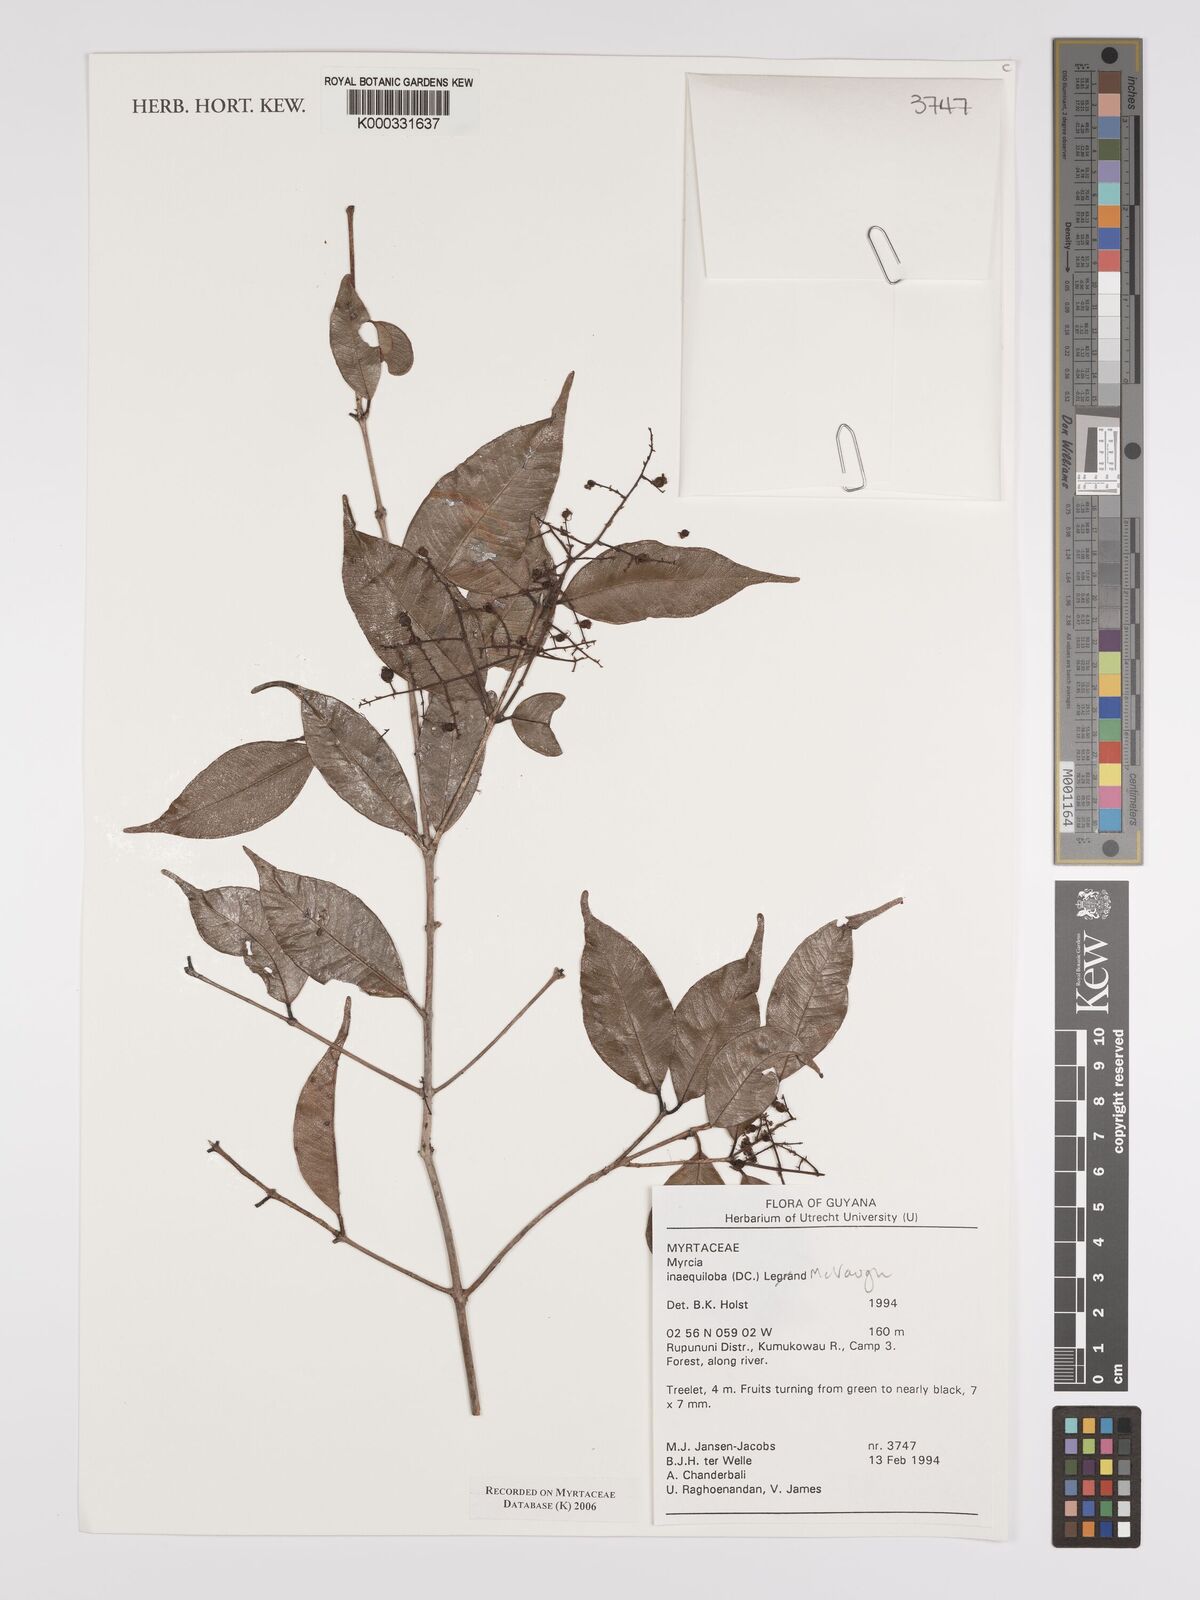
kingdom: Plantae
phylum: Tracheophyta
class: Magnoliopsida
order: Myrtales
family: Myrtaceae
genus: Myrcia
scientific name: Myrcia
